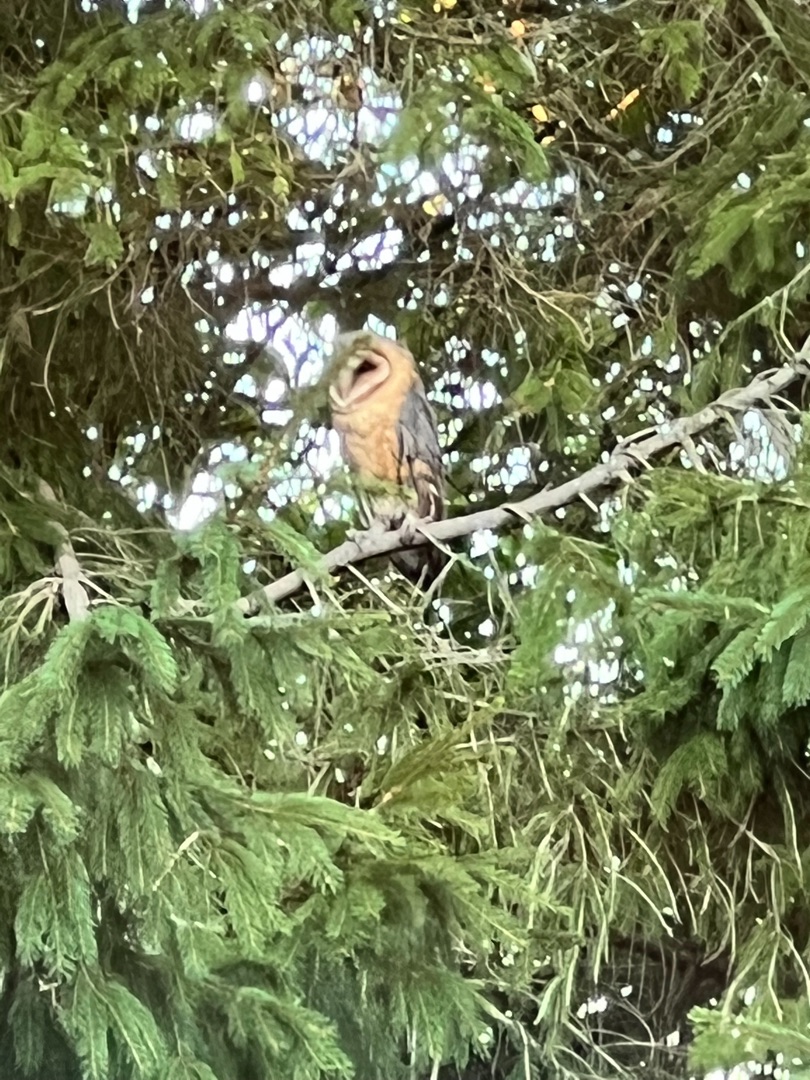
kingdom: Animalia
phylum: Chordata
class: Aves
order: Strigiformes
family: Tytonidae
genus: Tyto
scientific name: Tyto alba
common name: Slørugle
